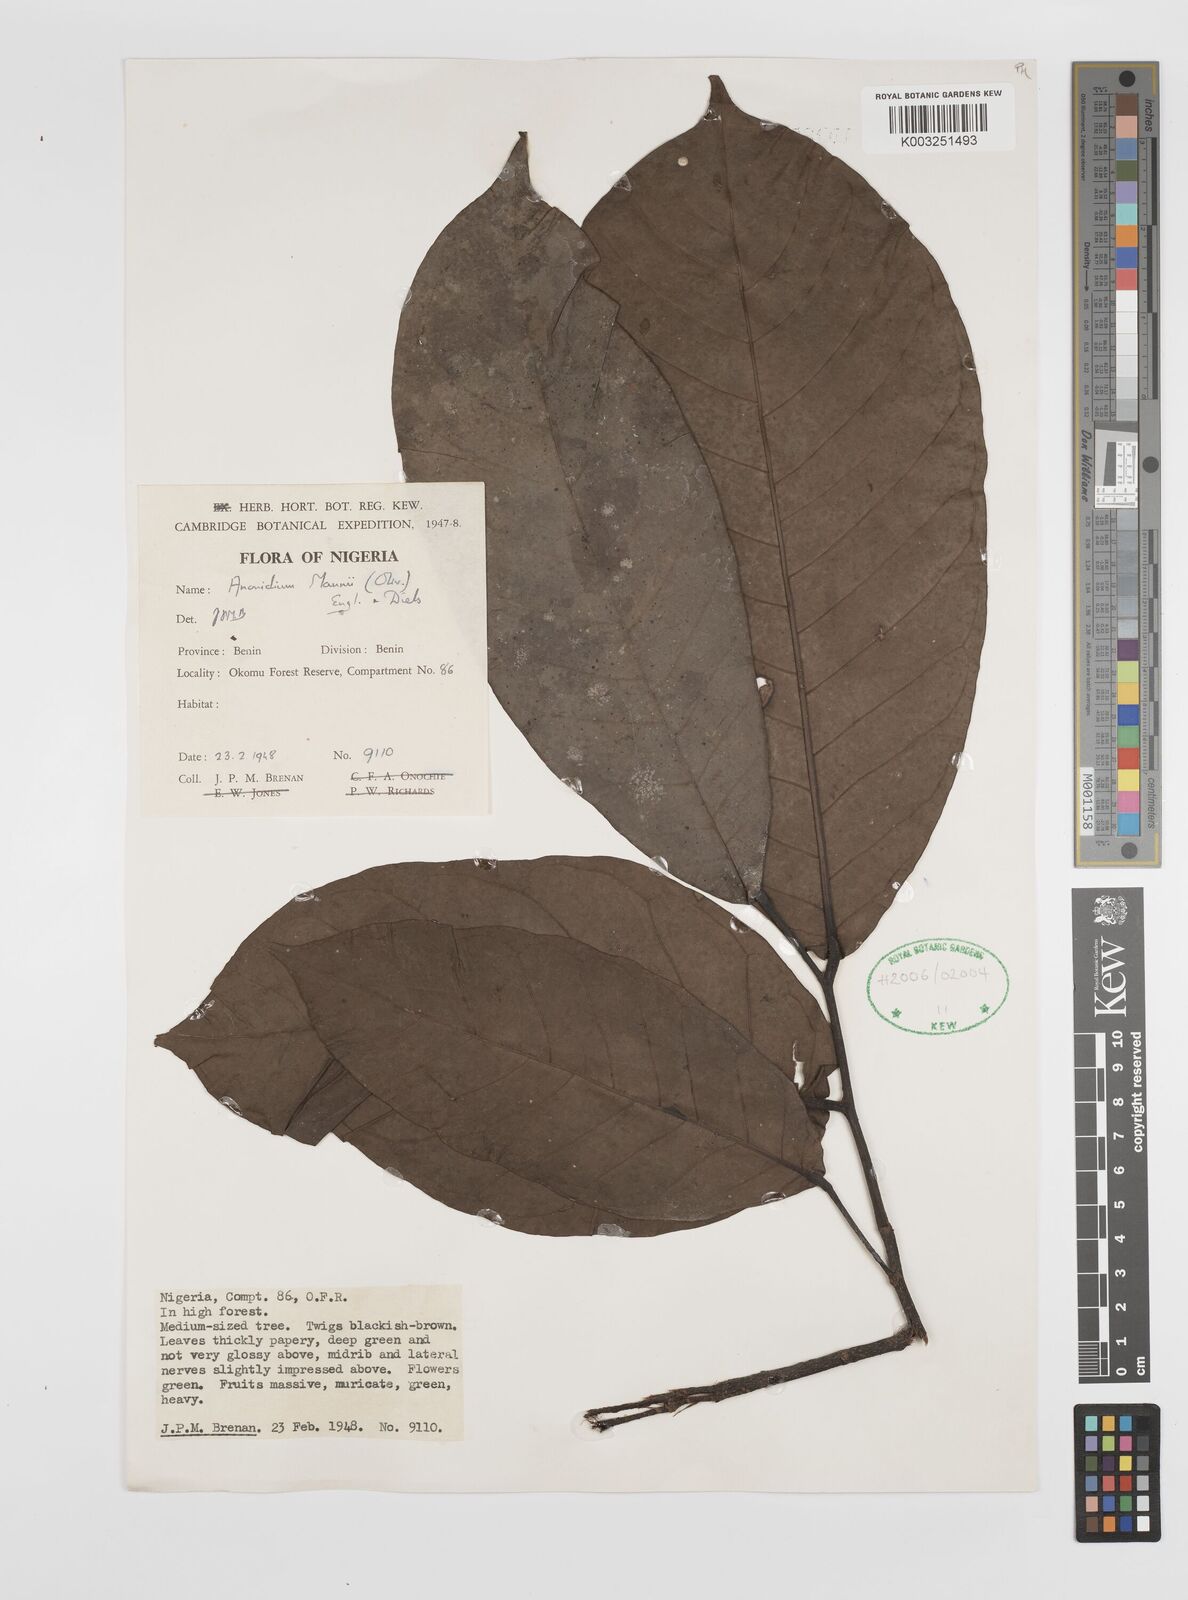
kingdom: Plantae
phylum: Tracheophyta
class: Magnoliopsida
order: Magnoliales
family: Annonaceae
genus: Anonidium
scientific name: Anonidium mannii
